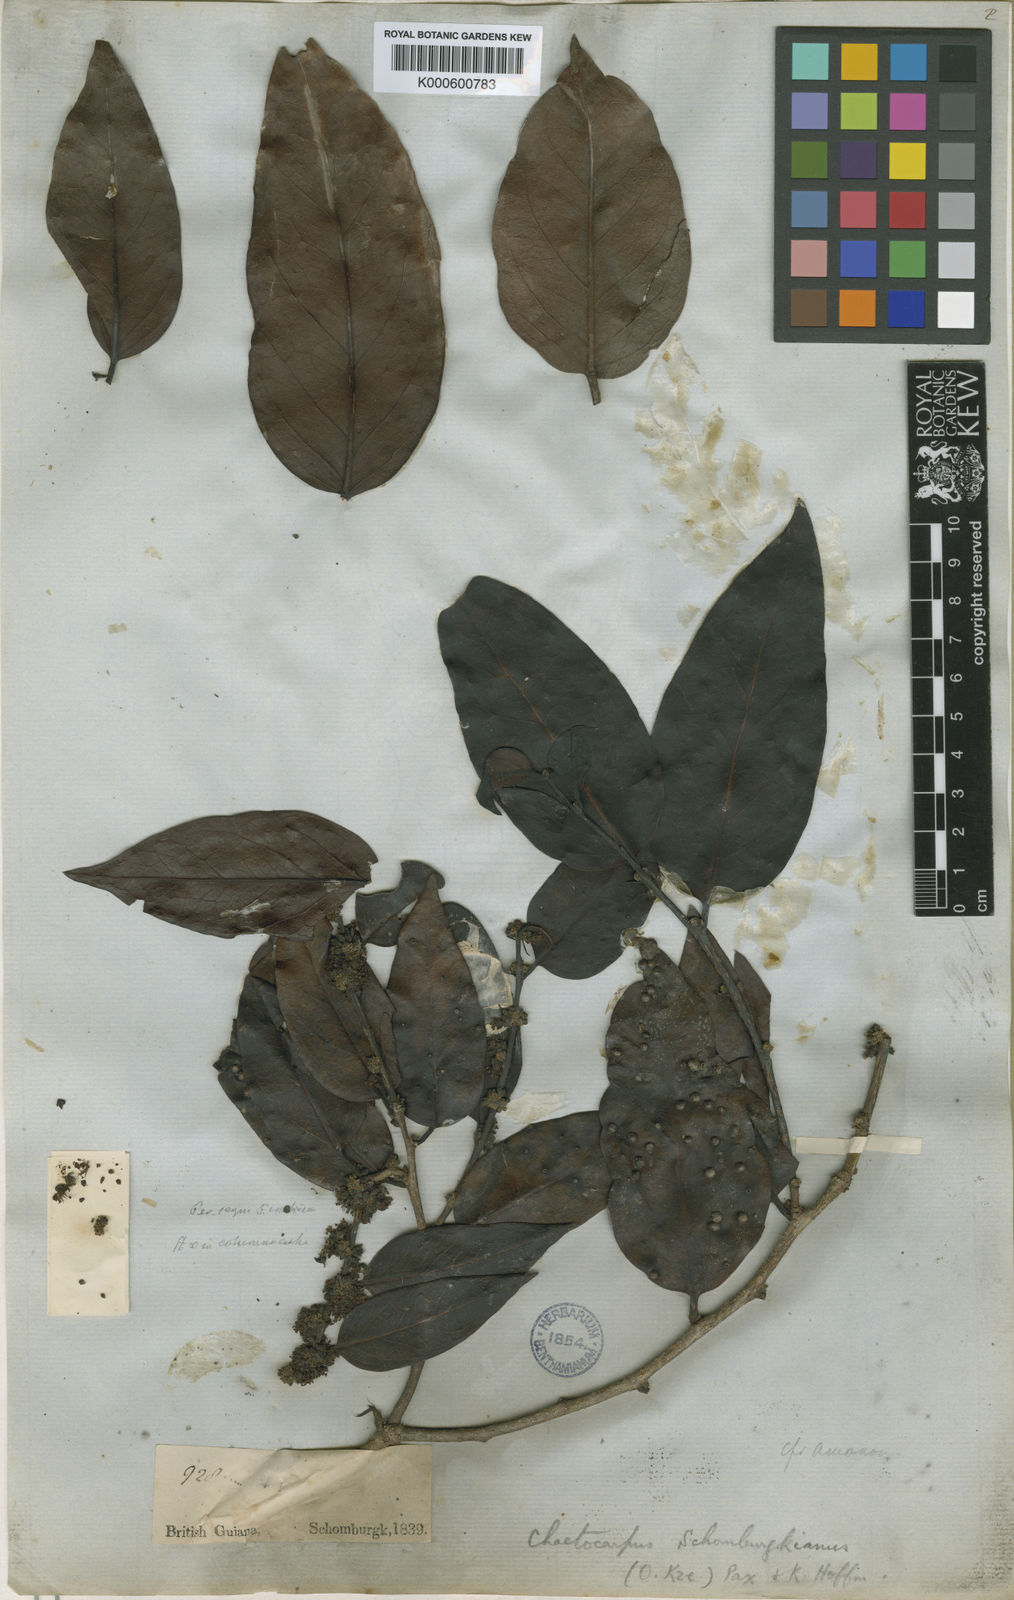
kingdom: Plantae
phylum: Tracheophyta
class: Magnoliopsida
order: Malpighiales
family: Peraceae
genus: Chaetocarpus
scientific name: Chaetocarpus schomburgkianus
